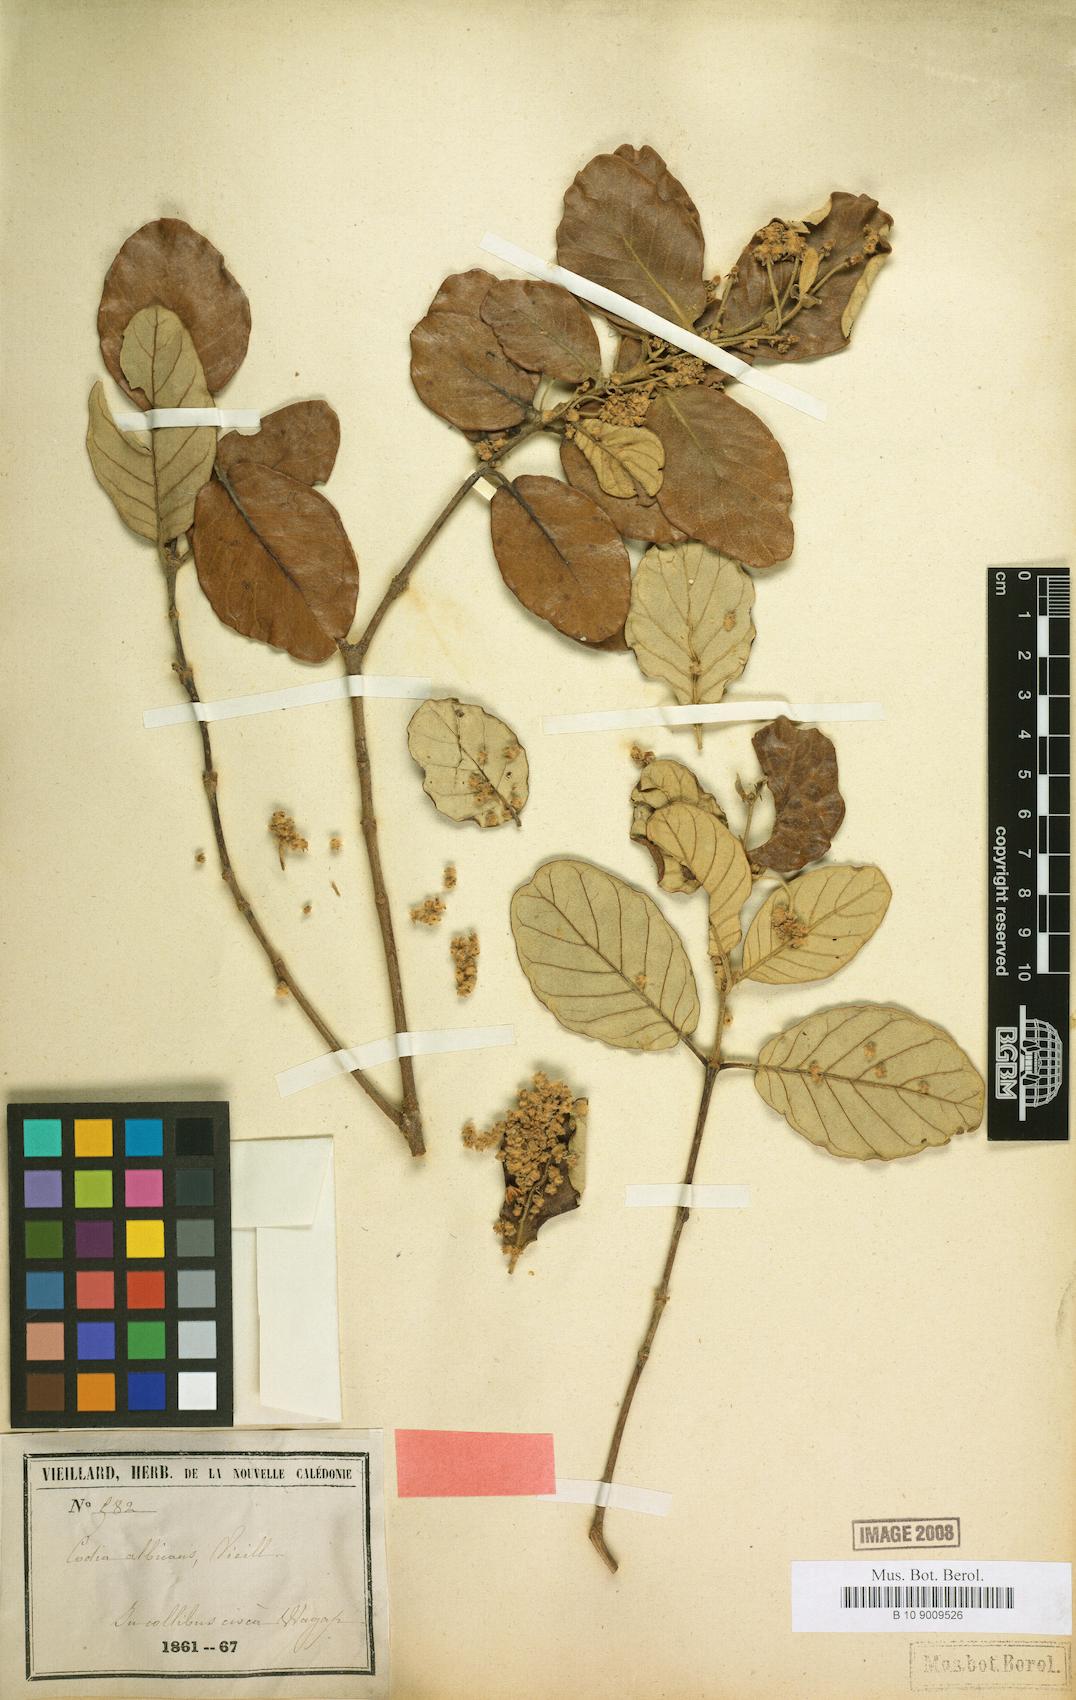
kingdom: Plantae
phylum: Tracheophyta
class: Magnoliopsida
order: Oxalidales
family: Cunoniaceae
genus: Codia
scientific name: Codia albicans
